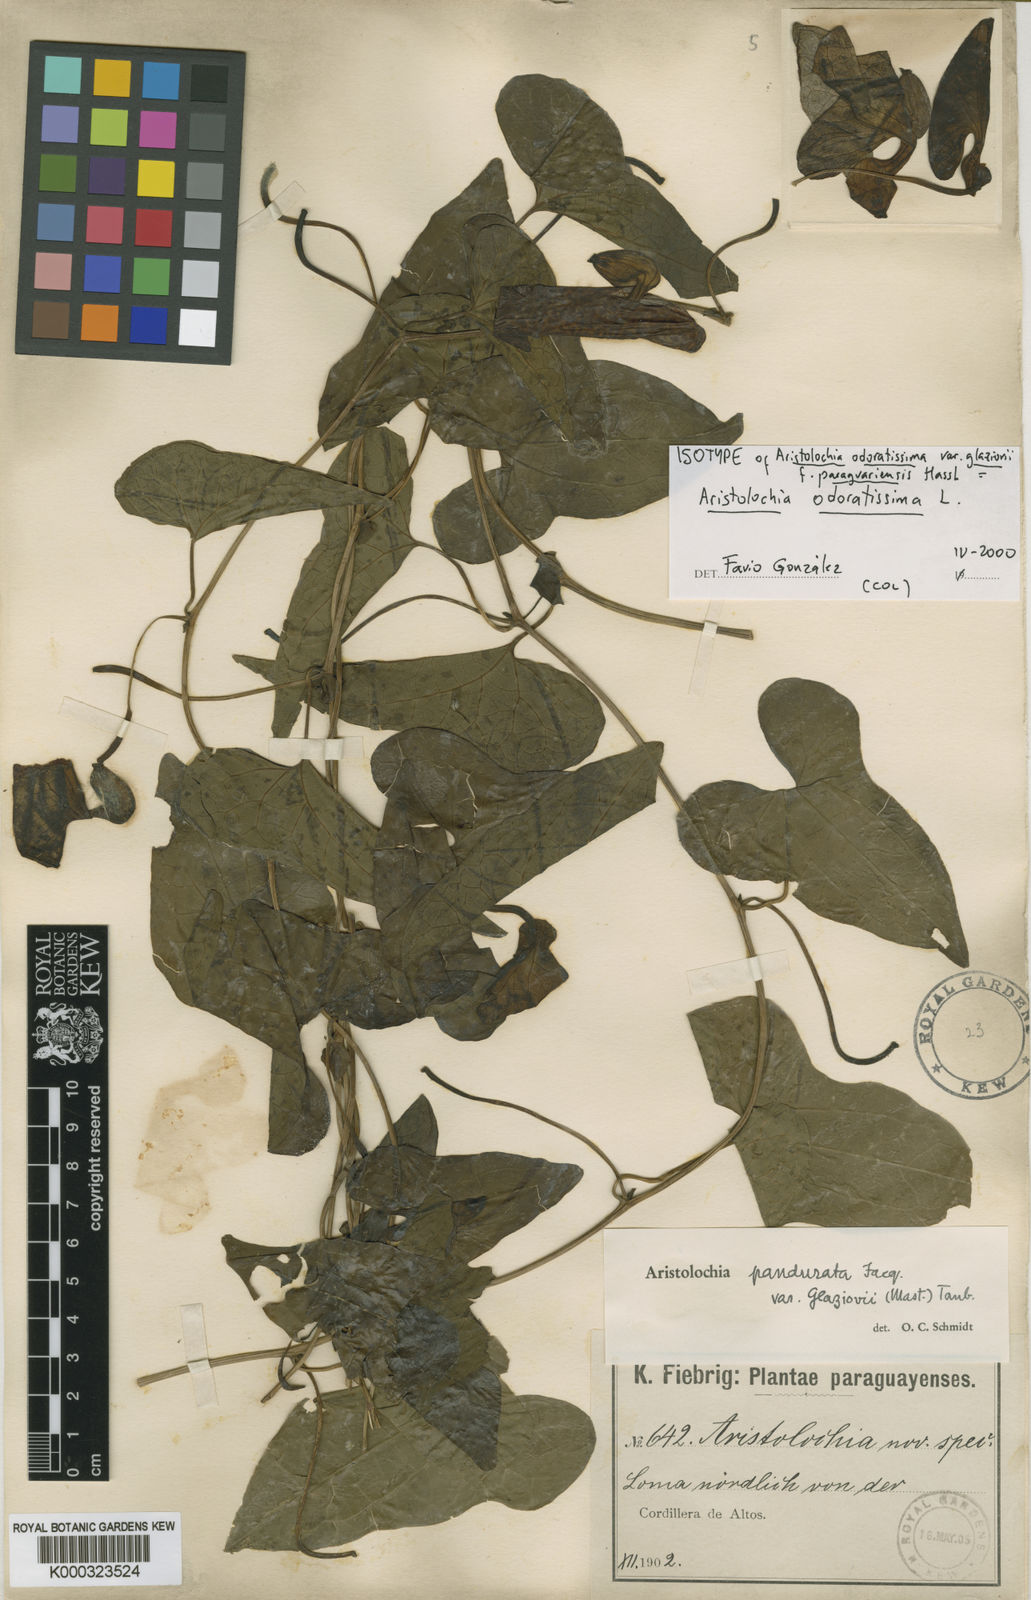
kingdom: Plantae
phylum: Tracheophyta
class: Magnoliopsida
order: Piperales
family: Aristolochiaceae
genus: Aristolochia
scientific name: Aristolochia odoratissima
